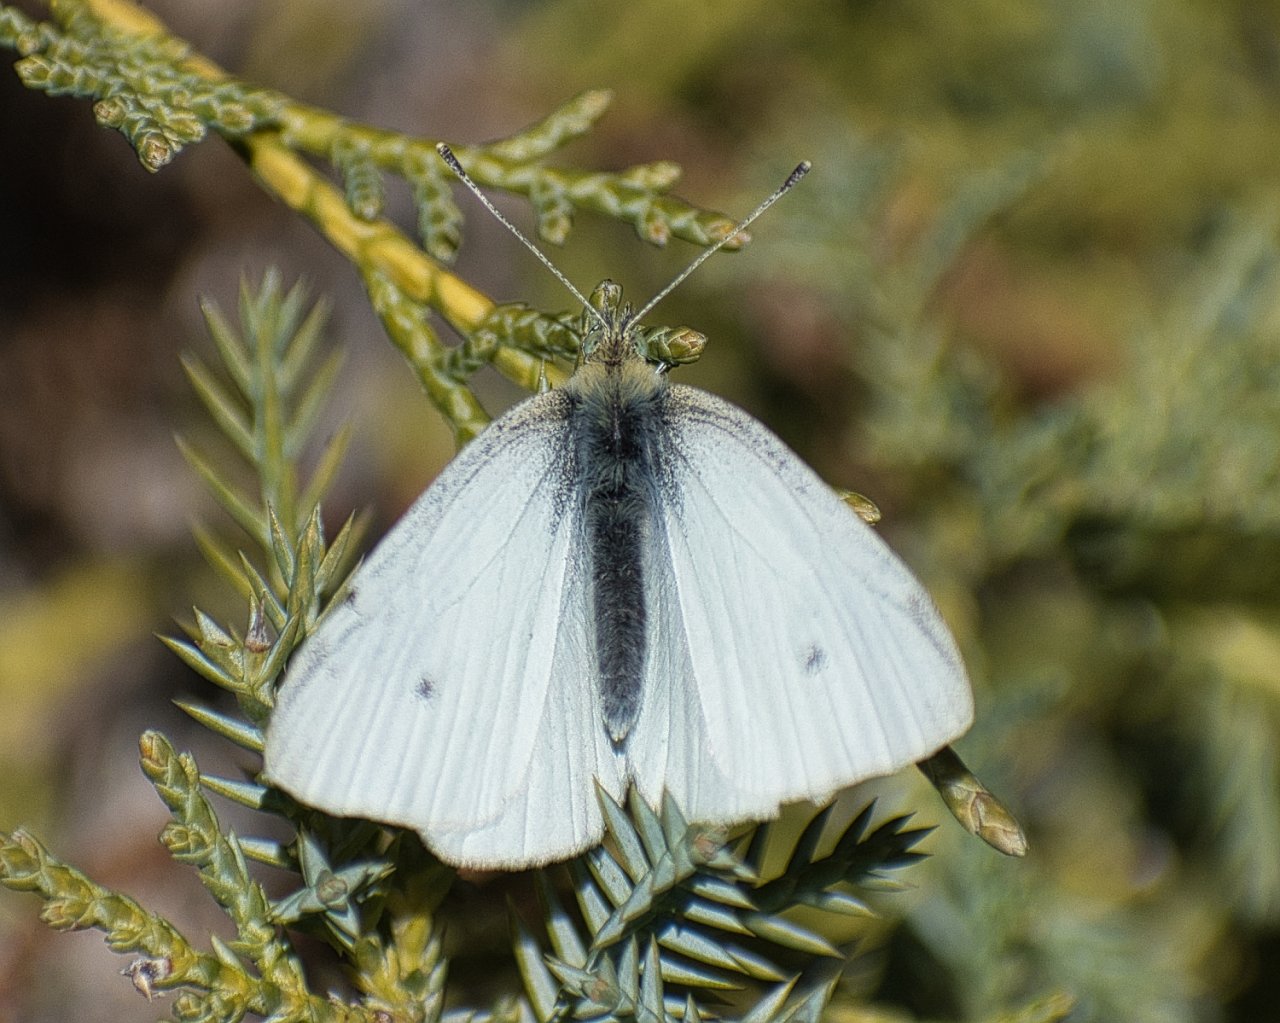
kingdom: Animalia
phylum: Arthropoda
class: Insecta
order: Lepidoptera
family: Pieridae
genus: Pieris
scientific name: Pieris rapae
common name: Cabbage White
